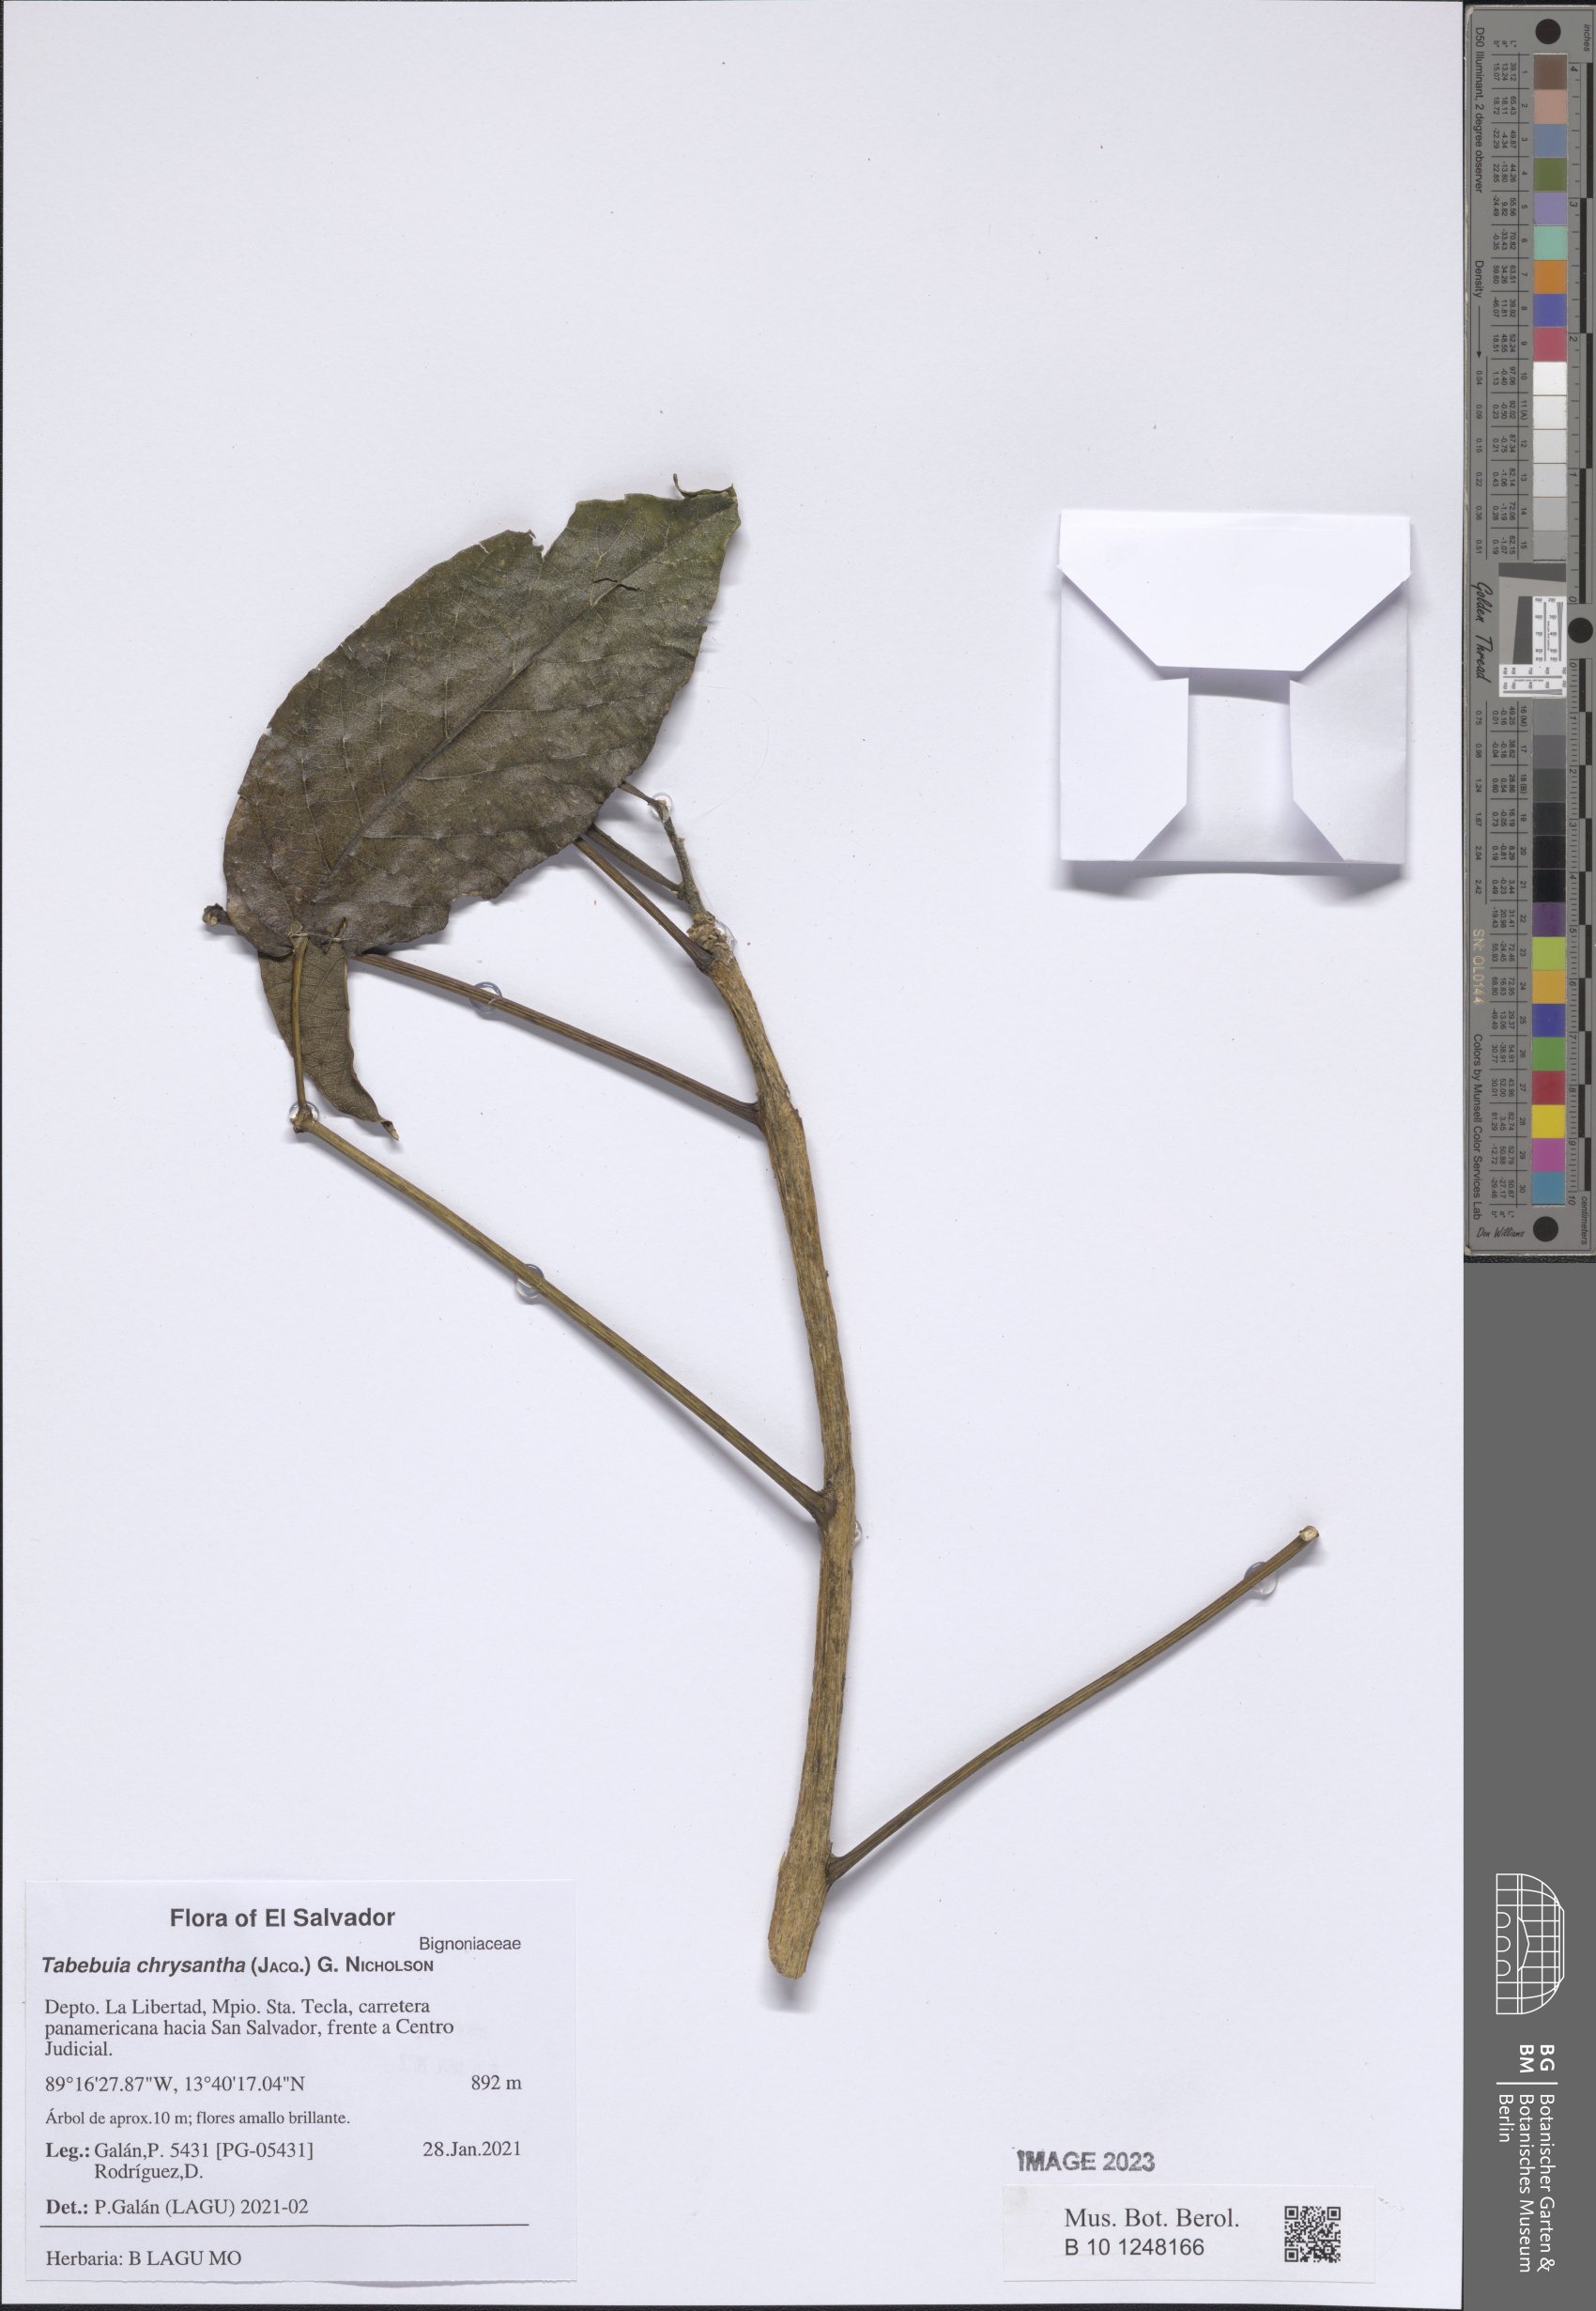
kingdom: Plantae
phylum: Tracheophyta
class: Magnoliopsida
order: Lamiales
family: Bignoniaceae
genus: Handroanthus
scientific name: Handroanthus chrysanthus
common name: Trumpet trees
